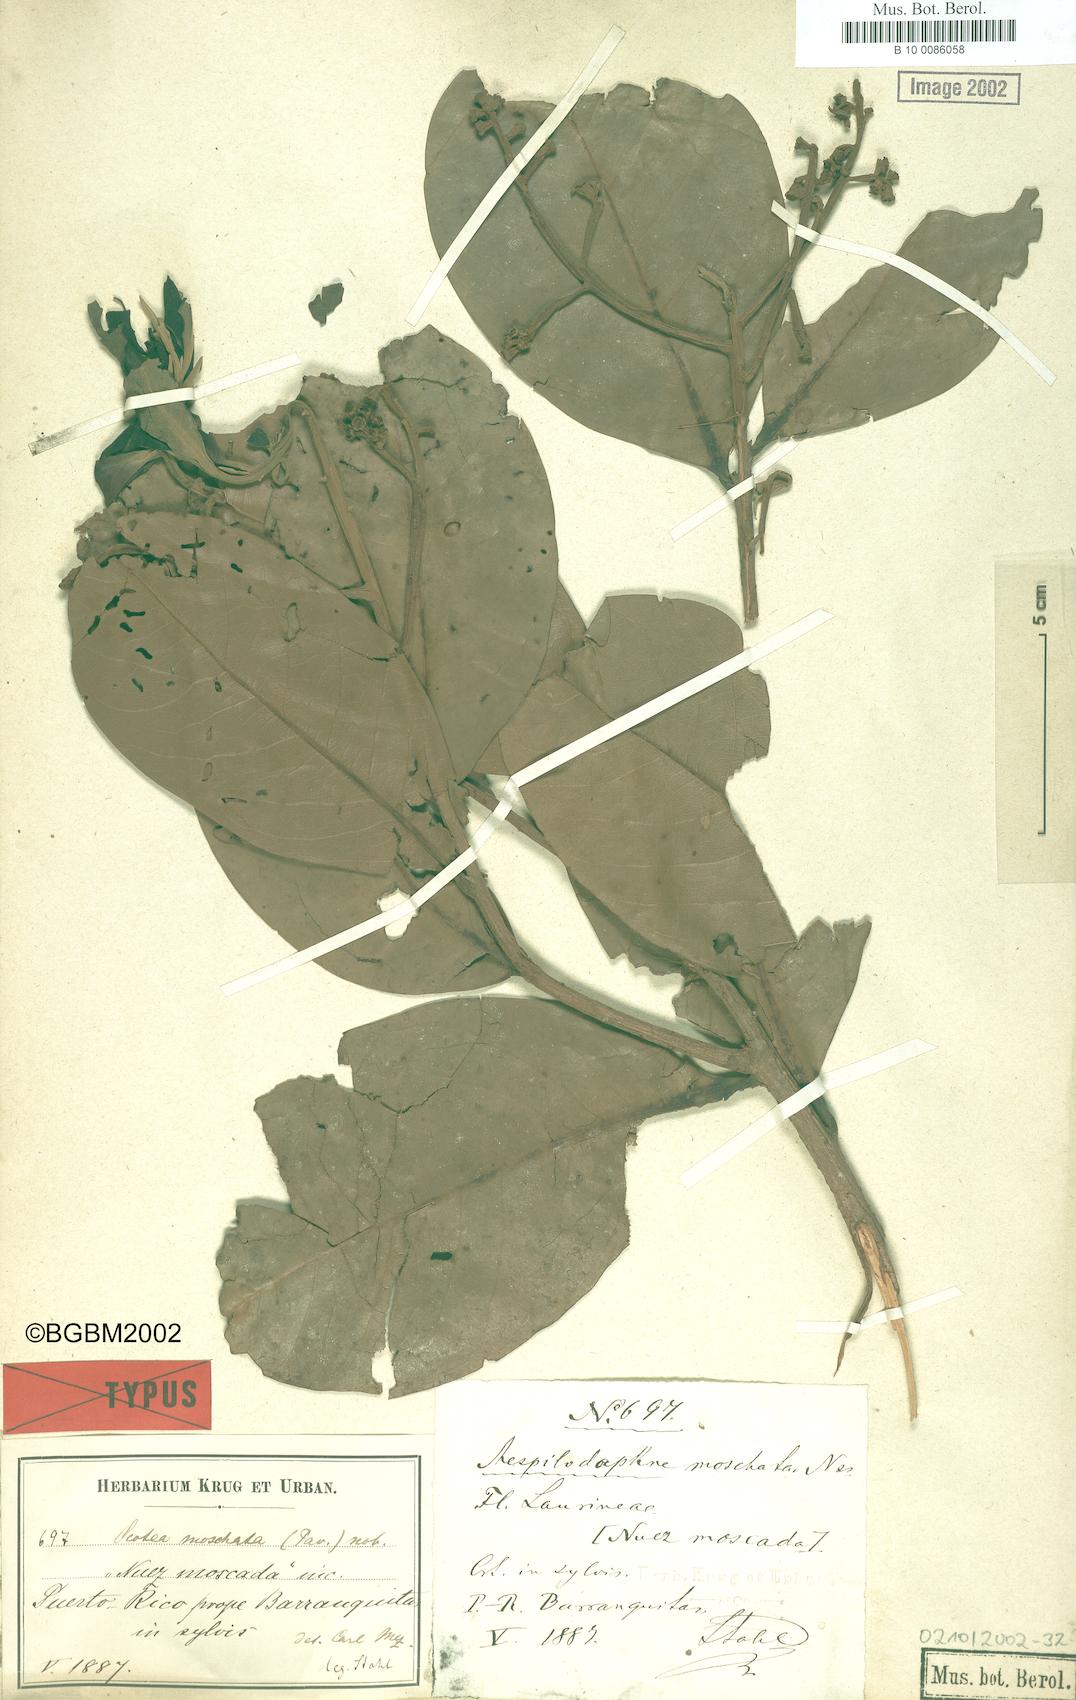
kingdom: Plantae
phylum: Tracheophyta
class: Magnoliopsida
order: Laurales
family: Lauraceae
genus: Mespilodaphne
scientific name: Mespilodaphne moschata
